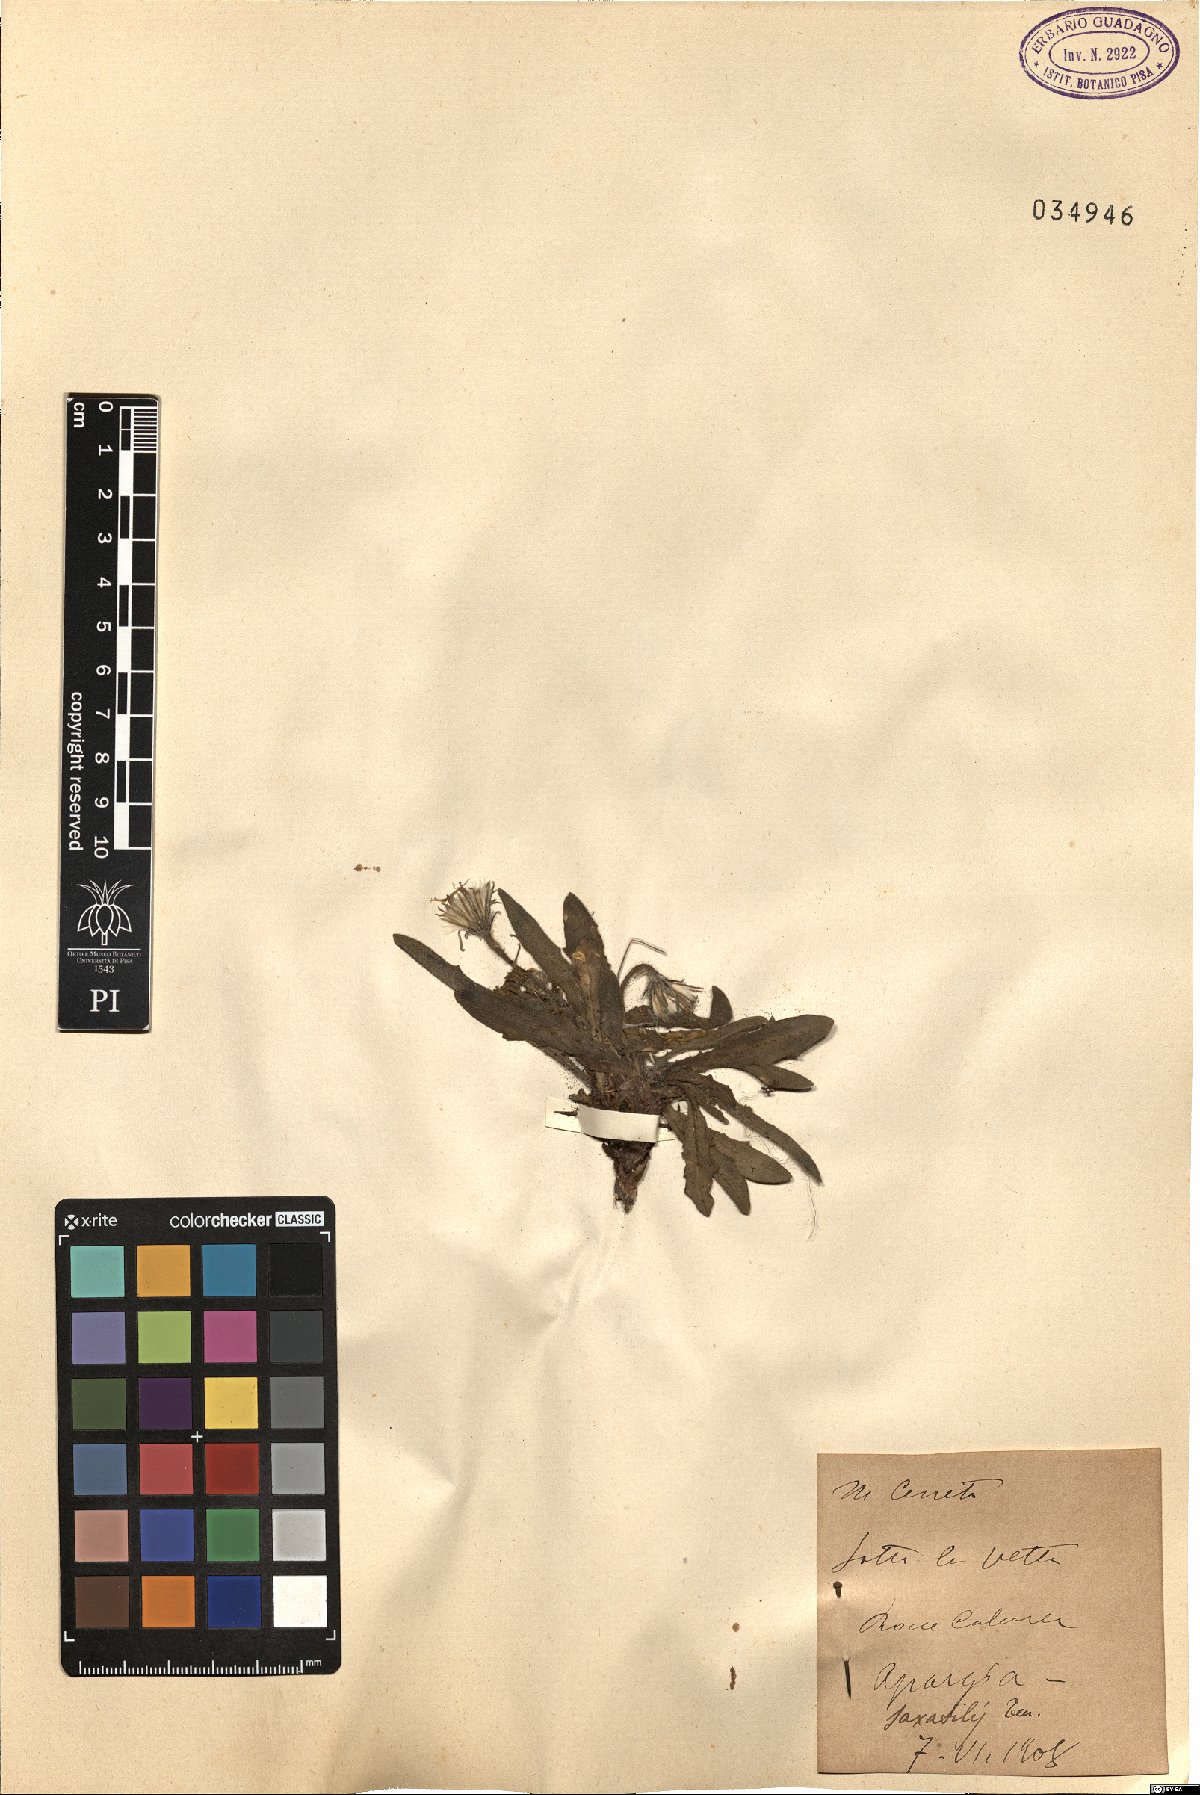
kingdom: Plantae
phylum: Tracheophyta
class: Magnoliopsida
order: Asterales
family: Asteraceae
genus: Leontodon
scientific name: Leontodon crispus
